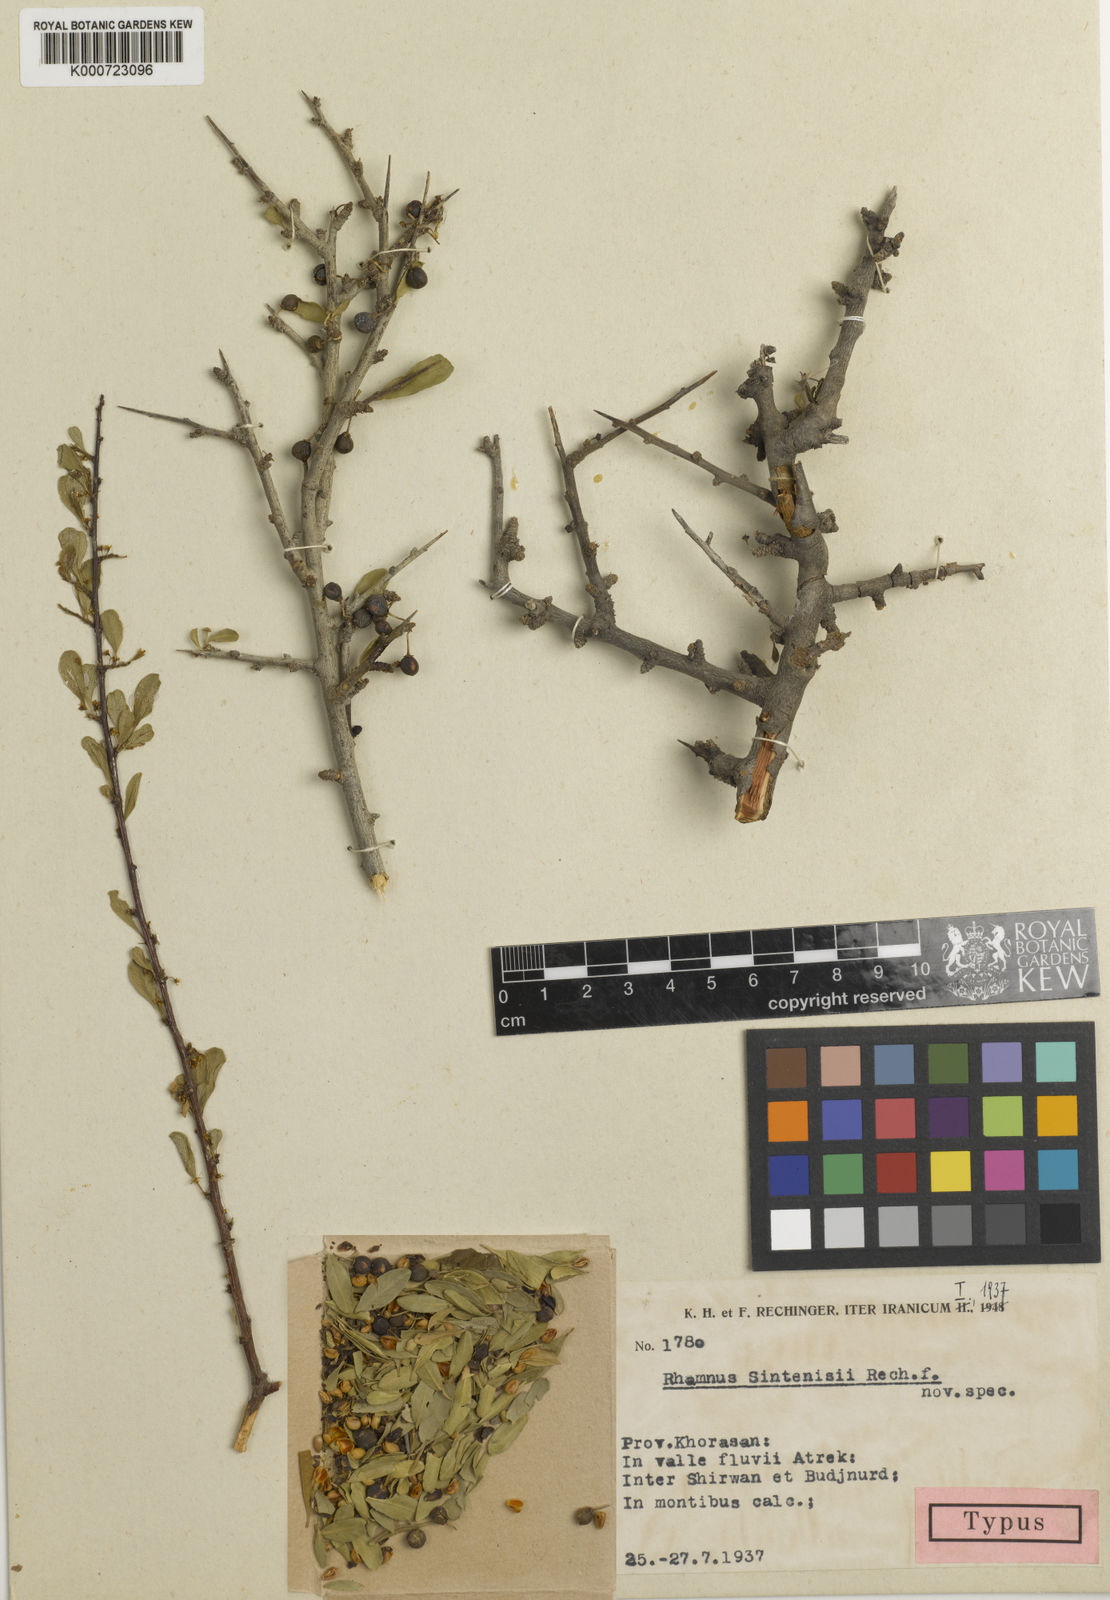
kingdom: Plantae
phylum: Tracheophyta
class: Magnoliopsida
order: Rosales
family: Rhamnaceae
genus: Rhamnus
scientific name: Rhamnus erythroxyloides
